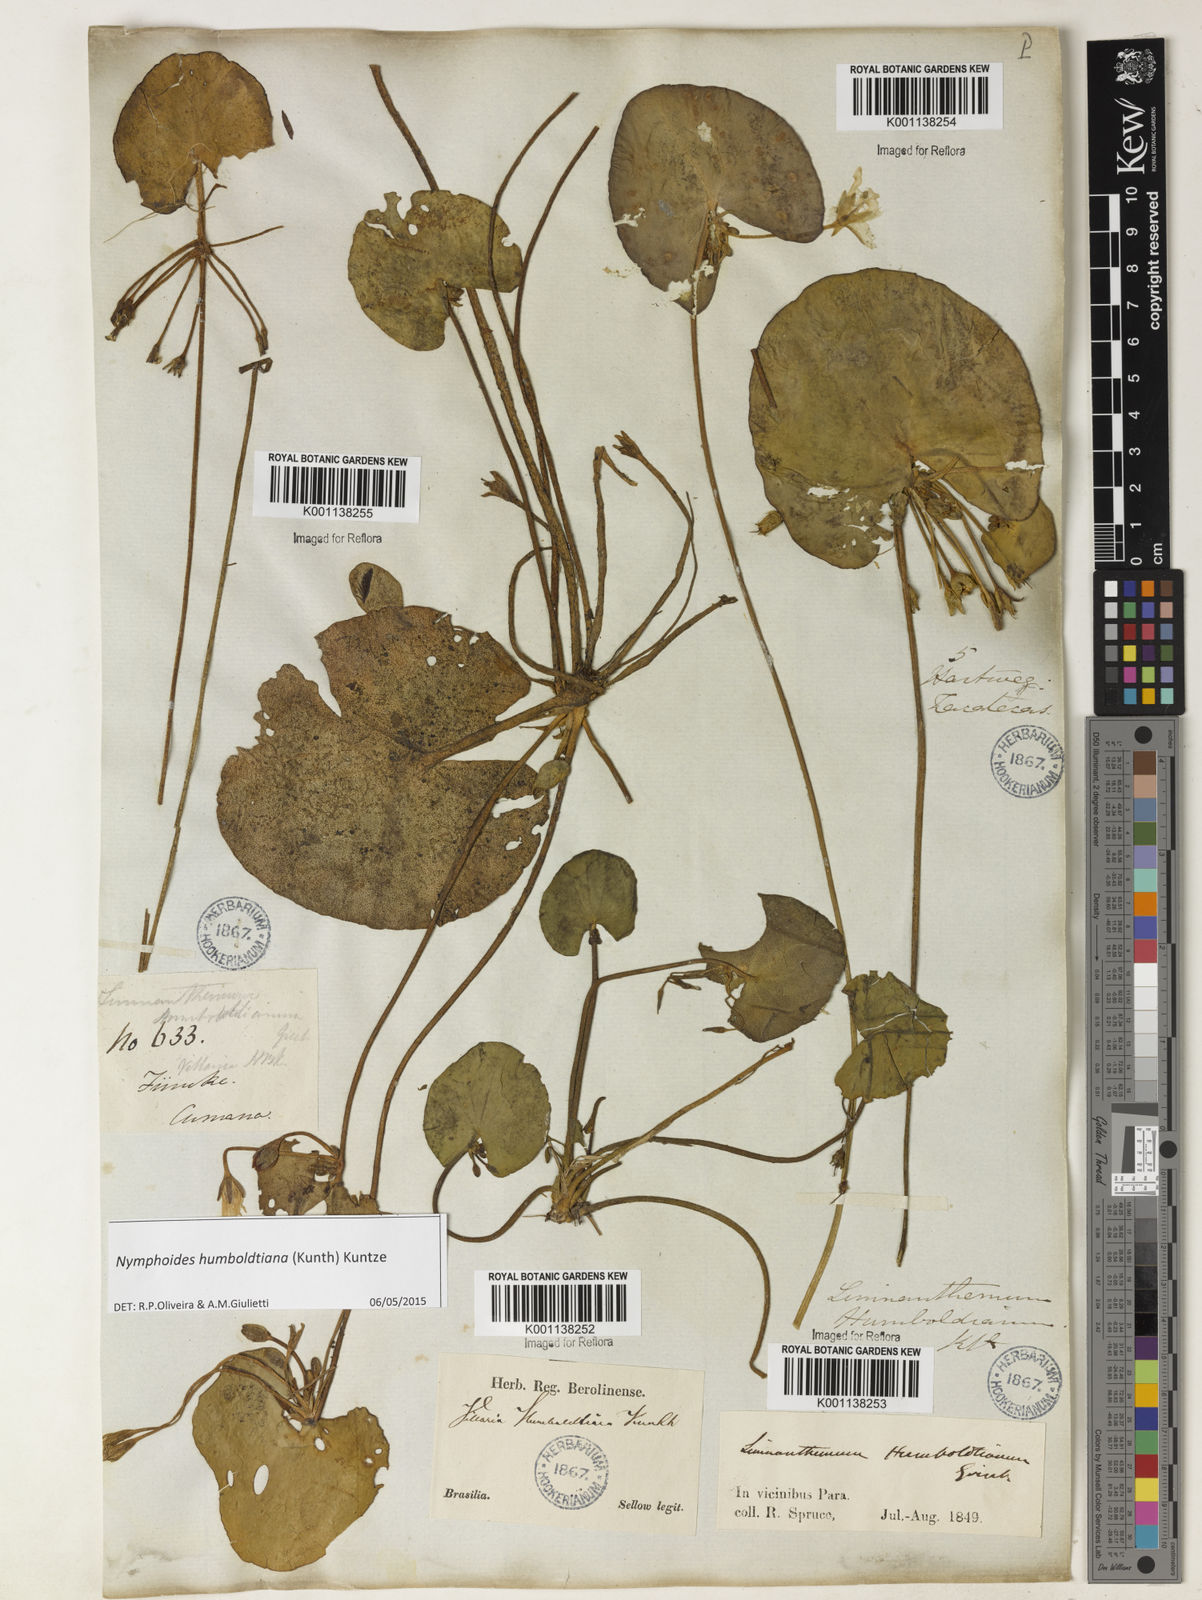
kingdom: Plantae
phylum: Tracheophyta
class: Magnoliopsida
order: Asterales
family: Menyanthaceae
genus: Nymphoides
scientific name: Nymphoides humboldtiana
